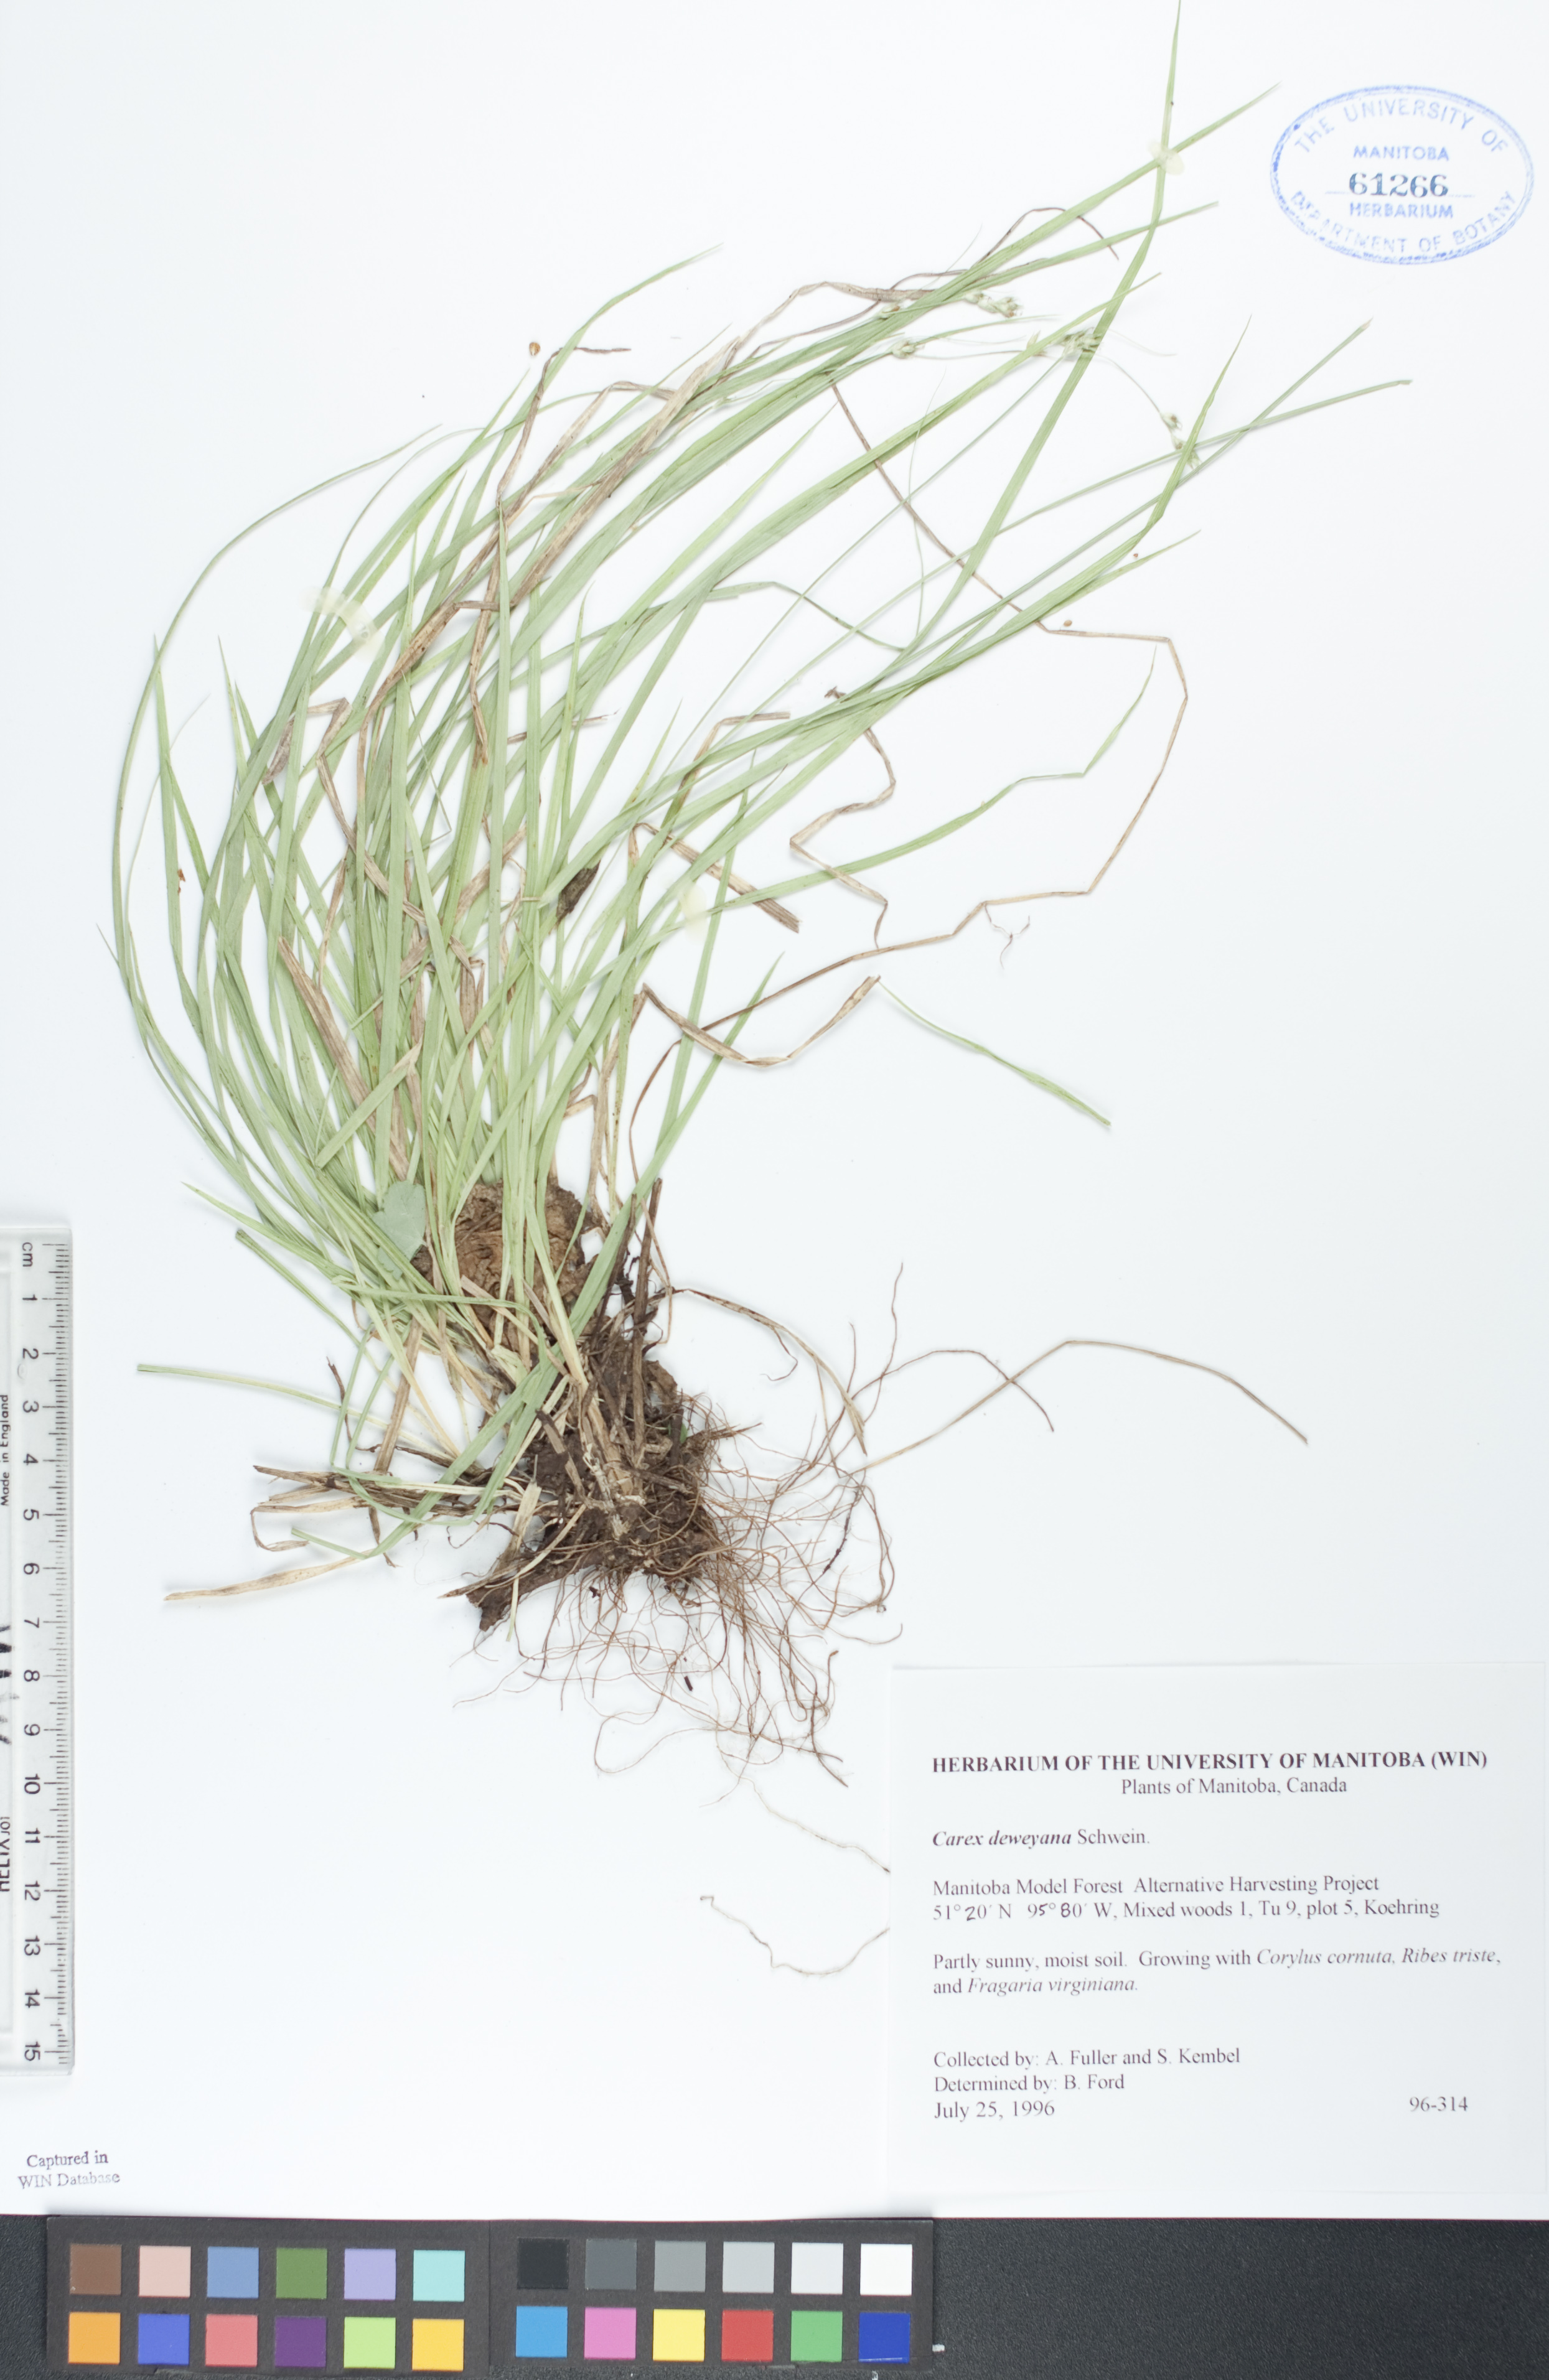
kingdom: Plantae
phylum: Tracheophyta
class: Liliopsida
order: Poales
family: Cyperaceae
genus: Carex
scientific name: Carex deweyana
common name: Dewey's sedge
